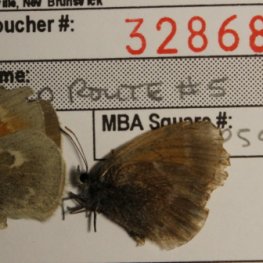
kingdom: Animalia
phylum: Arthropoda
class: Insecta
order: Lepidoptera
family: Nymphalidae
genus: Coenonympha
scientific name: Coenonympha tullia
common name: Large Heath
